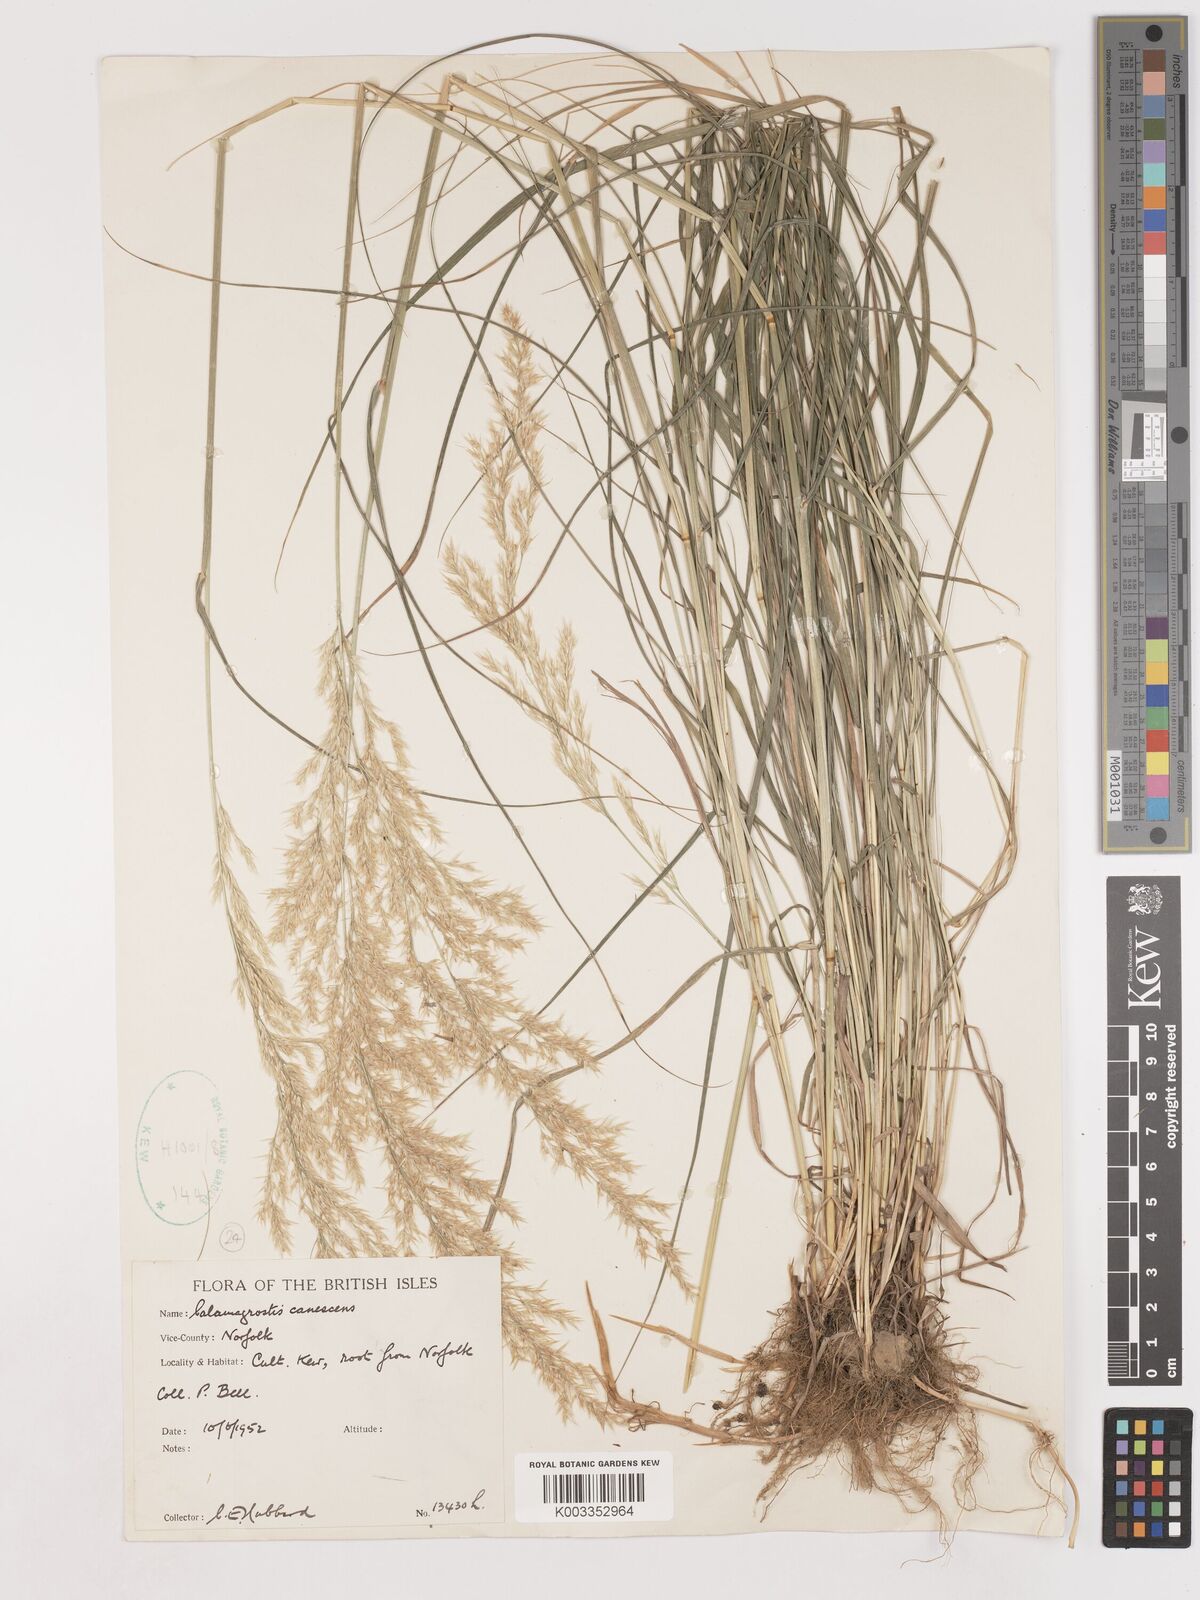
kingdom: Plantae
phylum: Tracheophyta
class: Liliopsida
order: Poales
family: Poaceae
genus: Calamagrostis
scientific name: Calamagrostis canescens
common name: Purple small-reed
